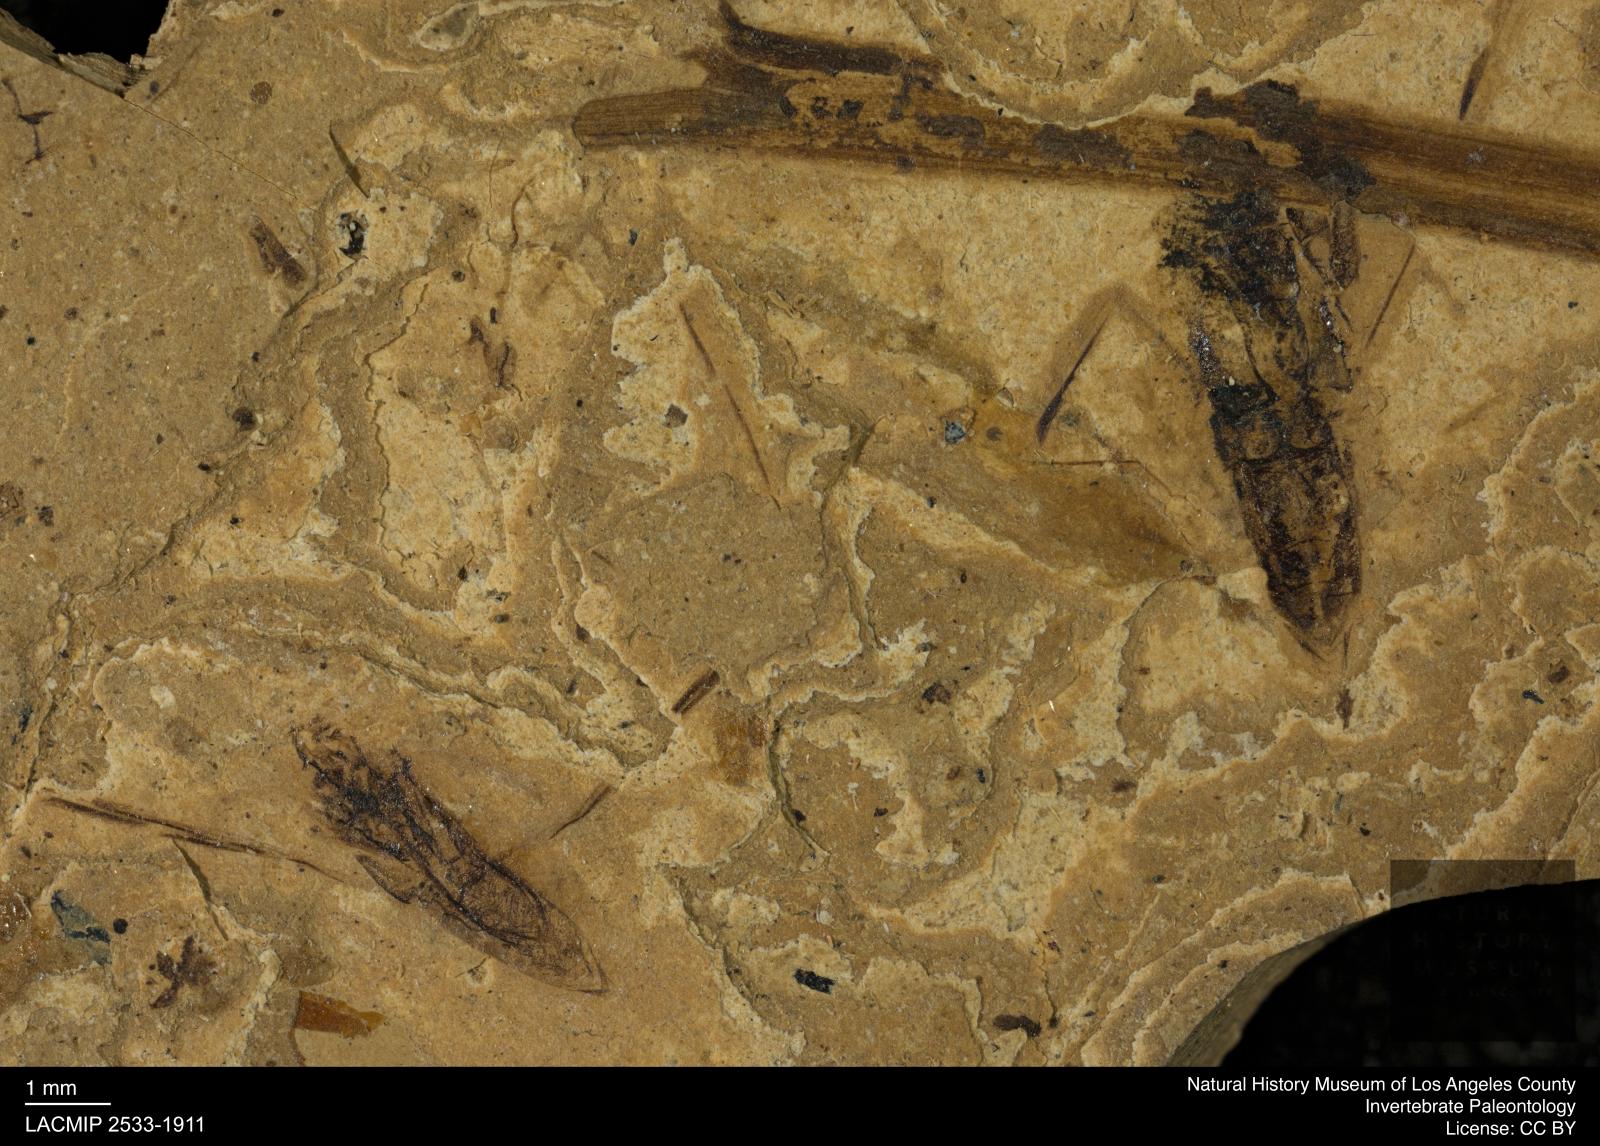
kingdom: Animalia
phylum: Arthropoda
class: Insecta
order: Hemiptera
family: Notonectidae
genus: Notonecta
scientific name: Notonecta
